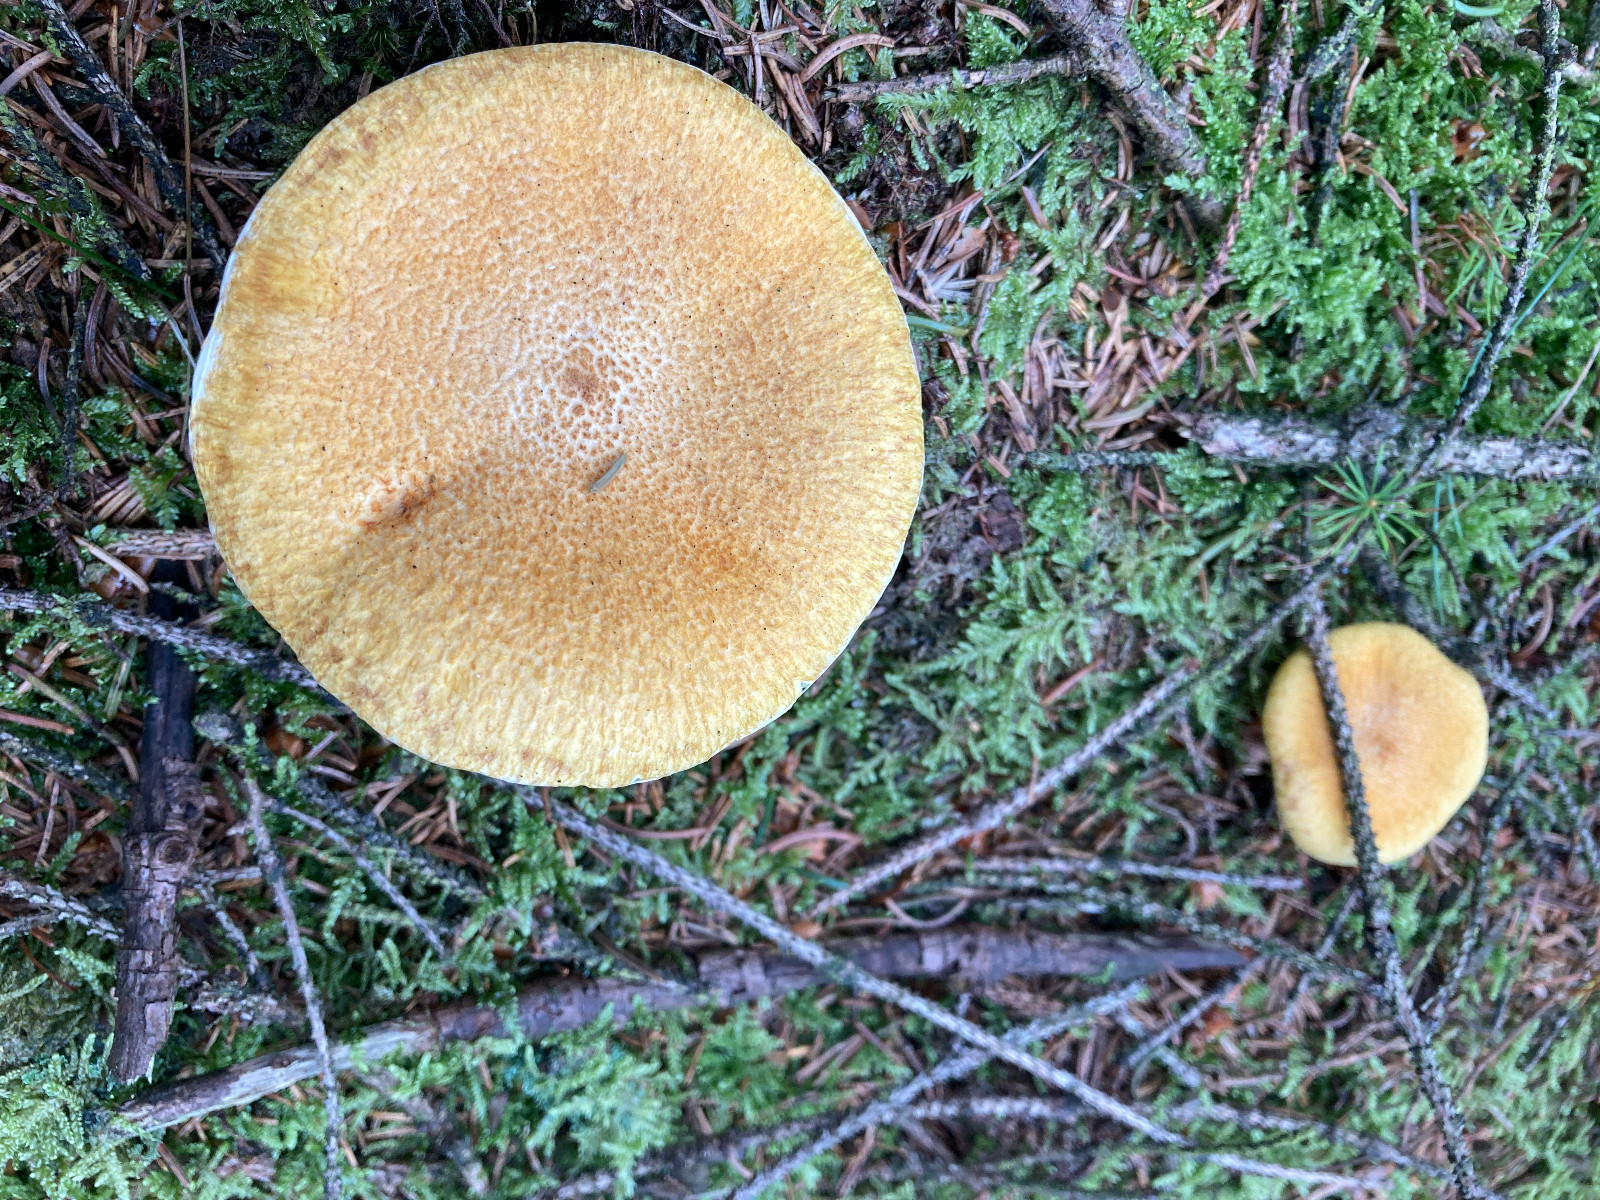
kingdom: Fungi
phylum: Basidiomycota
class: Agaricomycetes
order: Boletales
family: Suillaceae
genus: Suillus
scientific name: Suillus bovinus
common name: grovporet slimrørhat
